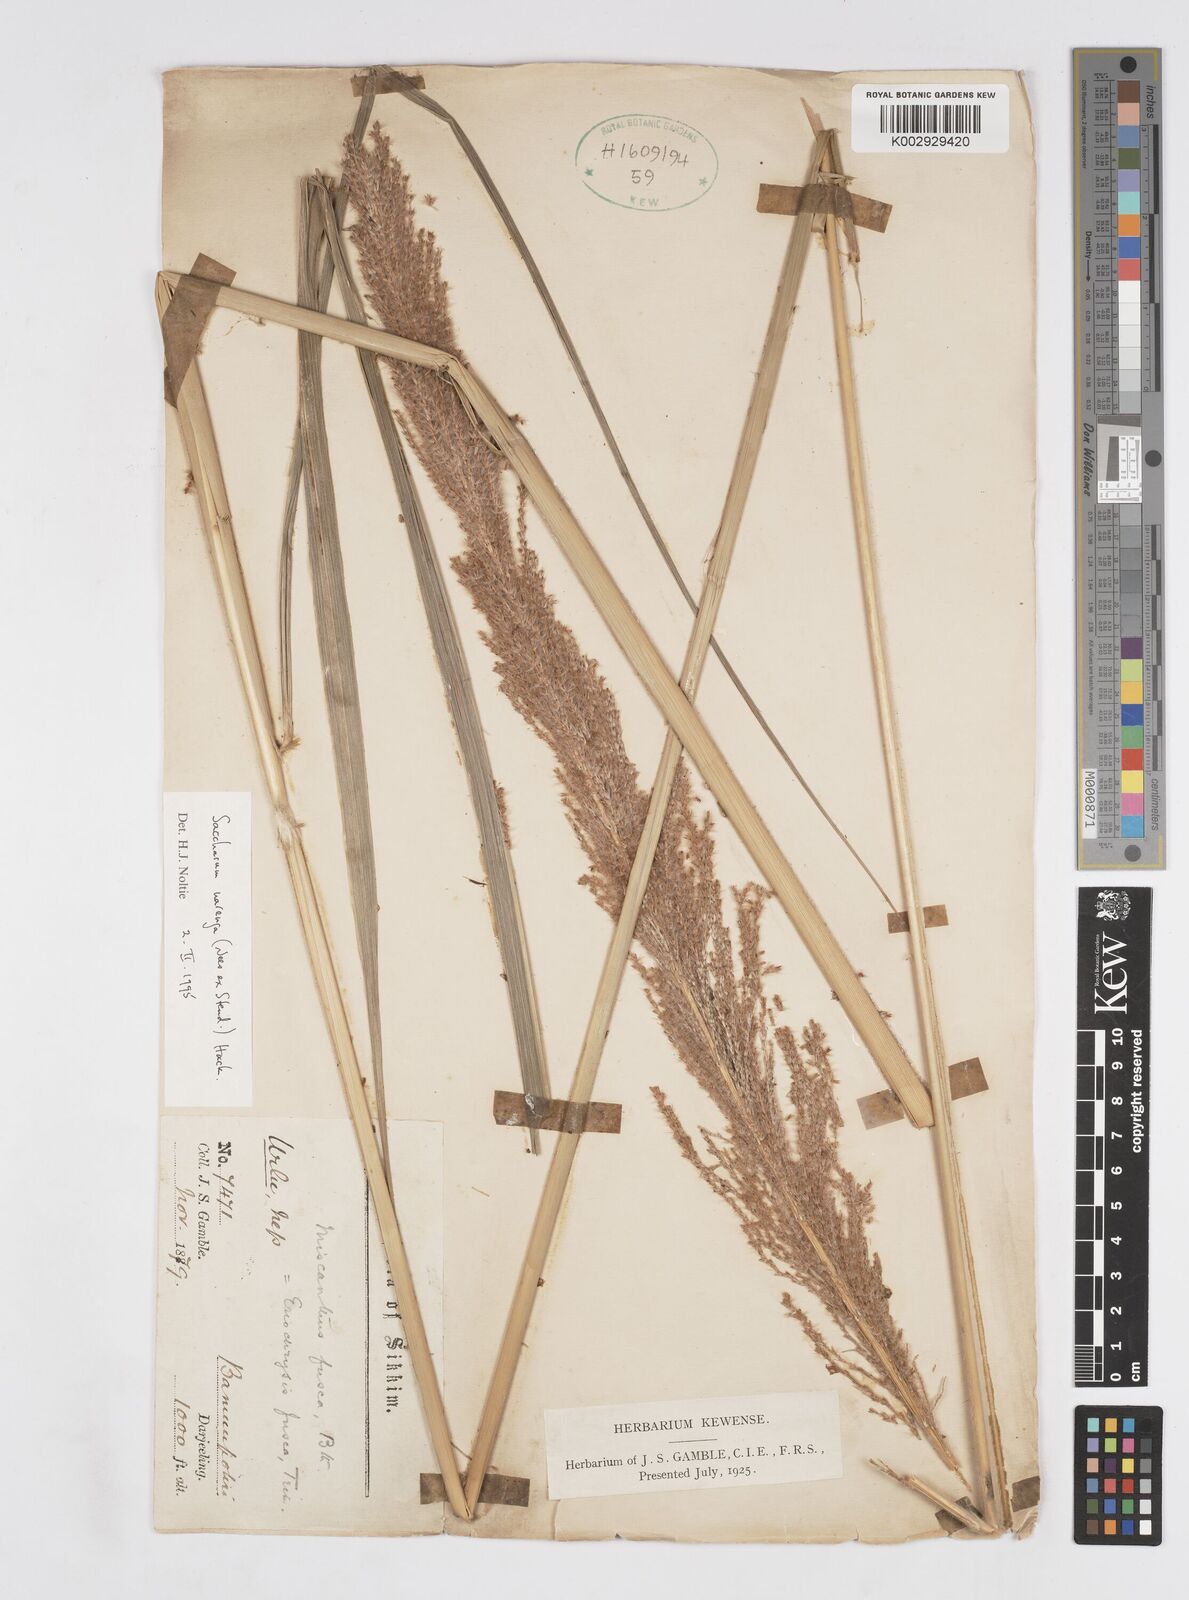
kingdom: Plantae
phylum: Tracheophyta
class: Liliopsida
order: Poales
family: Poaceae
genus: Narenga
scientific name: Narenga porphyrocoma
